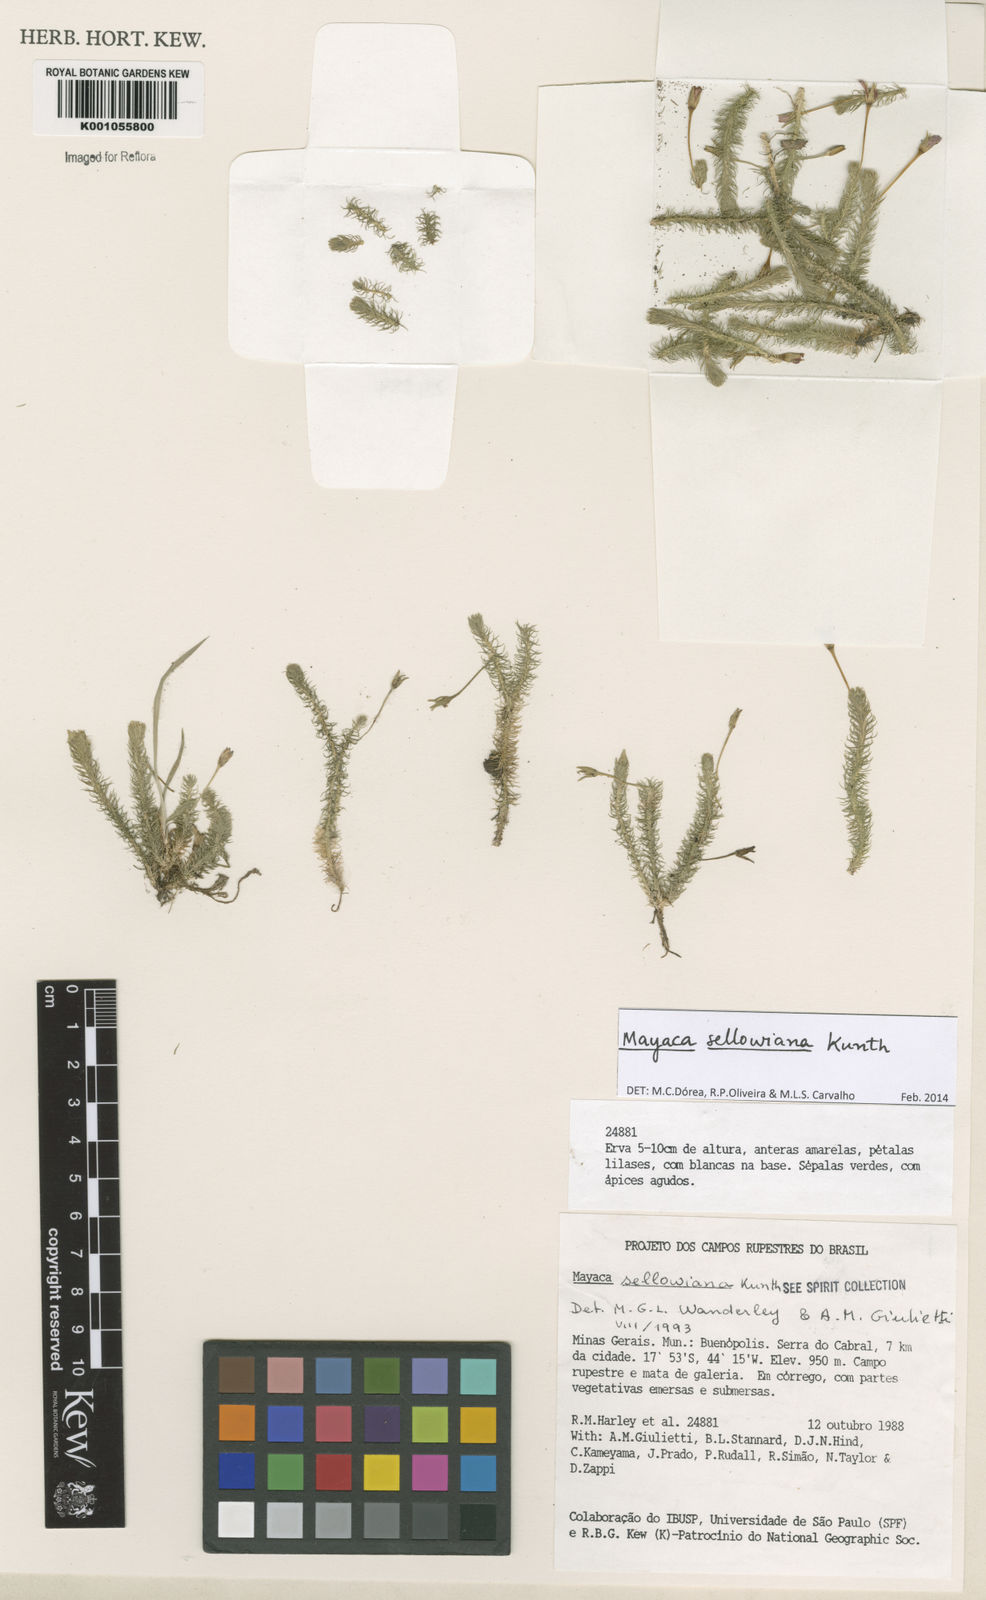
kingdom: Plantae
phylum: Tracheophyta
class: Liliopsida
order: Poales
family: Mayacaceae
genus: Mayaca
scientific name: Mayaca sellowiana
